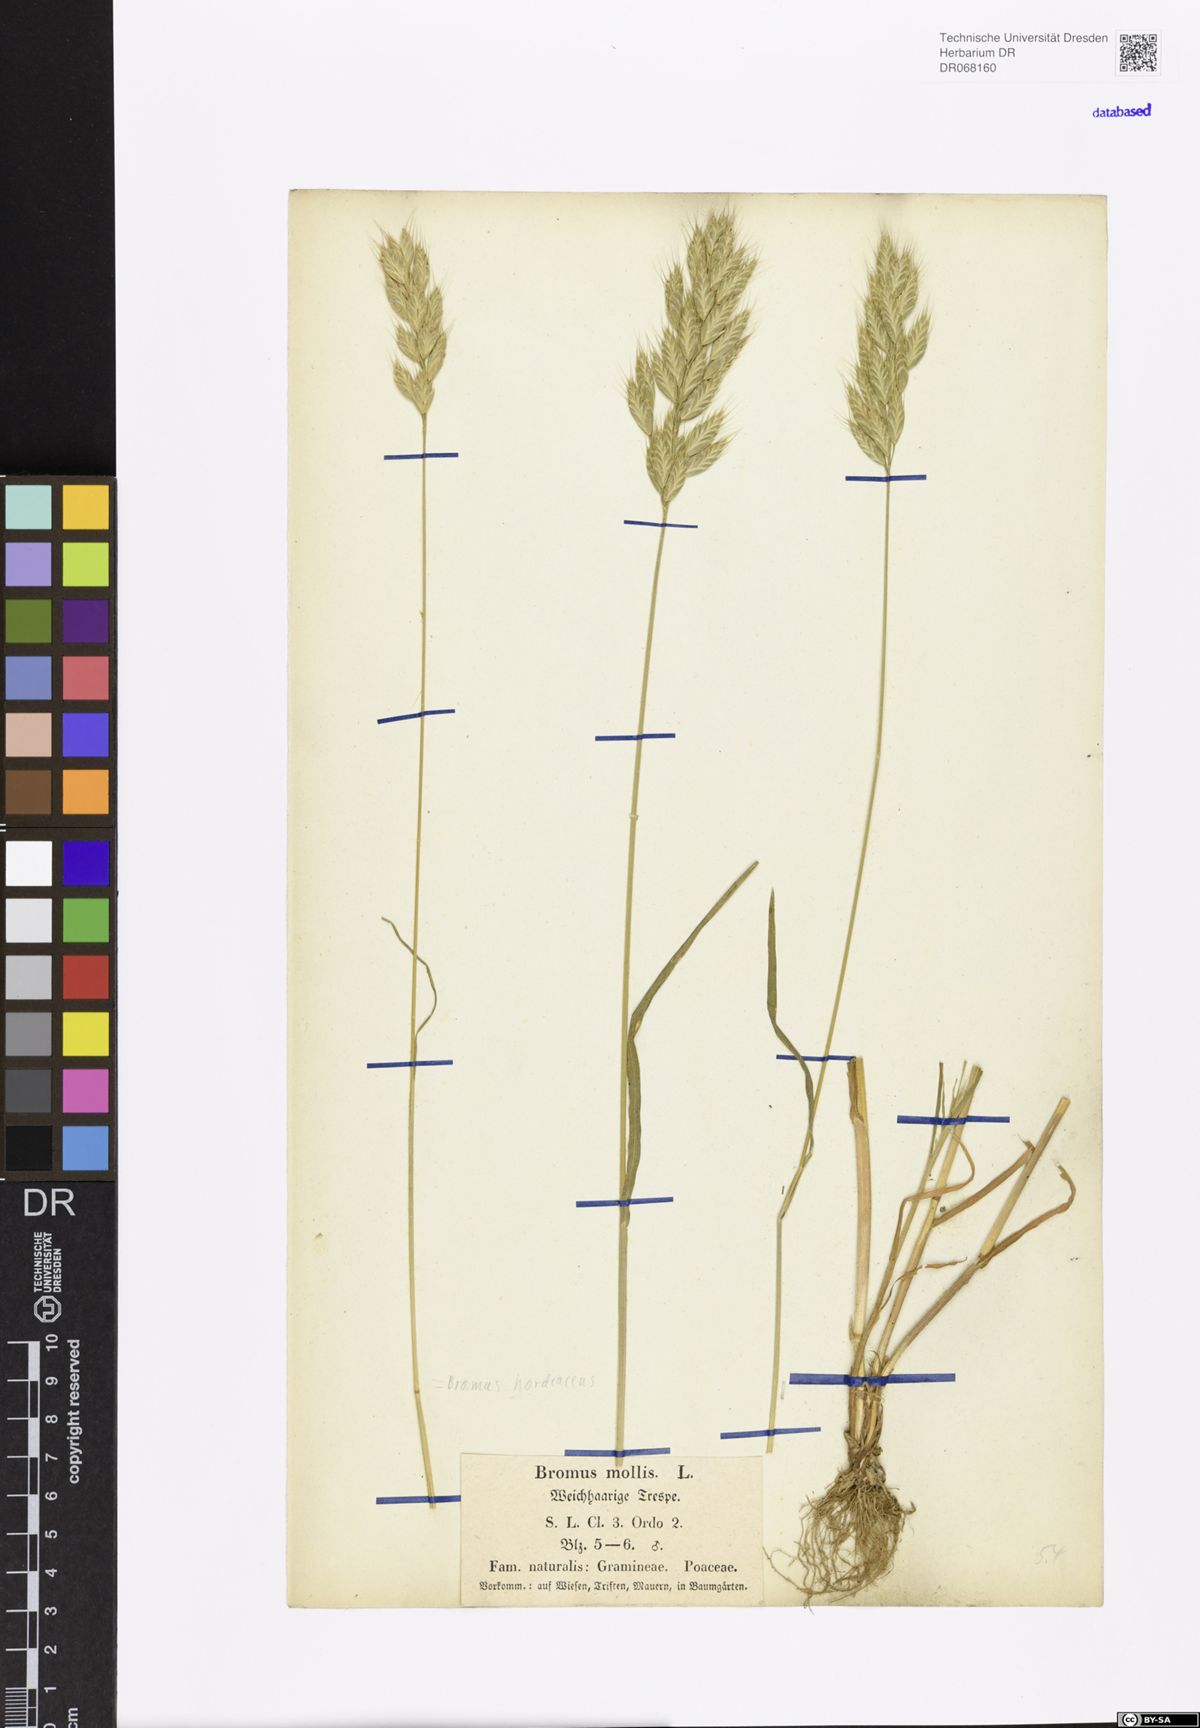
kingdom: Plantae
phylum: Tracheophyta
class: Liliopsida
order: Poales
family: Poaceae
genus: Bromus
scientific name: Bromus hordeaceus
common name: Soft brome
